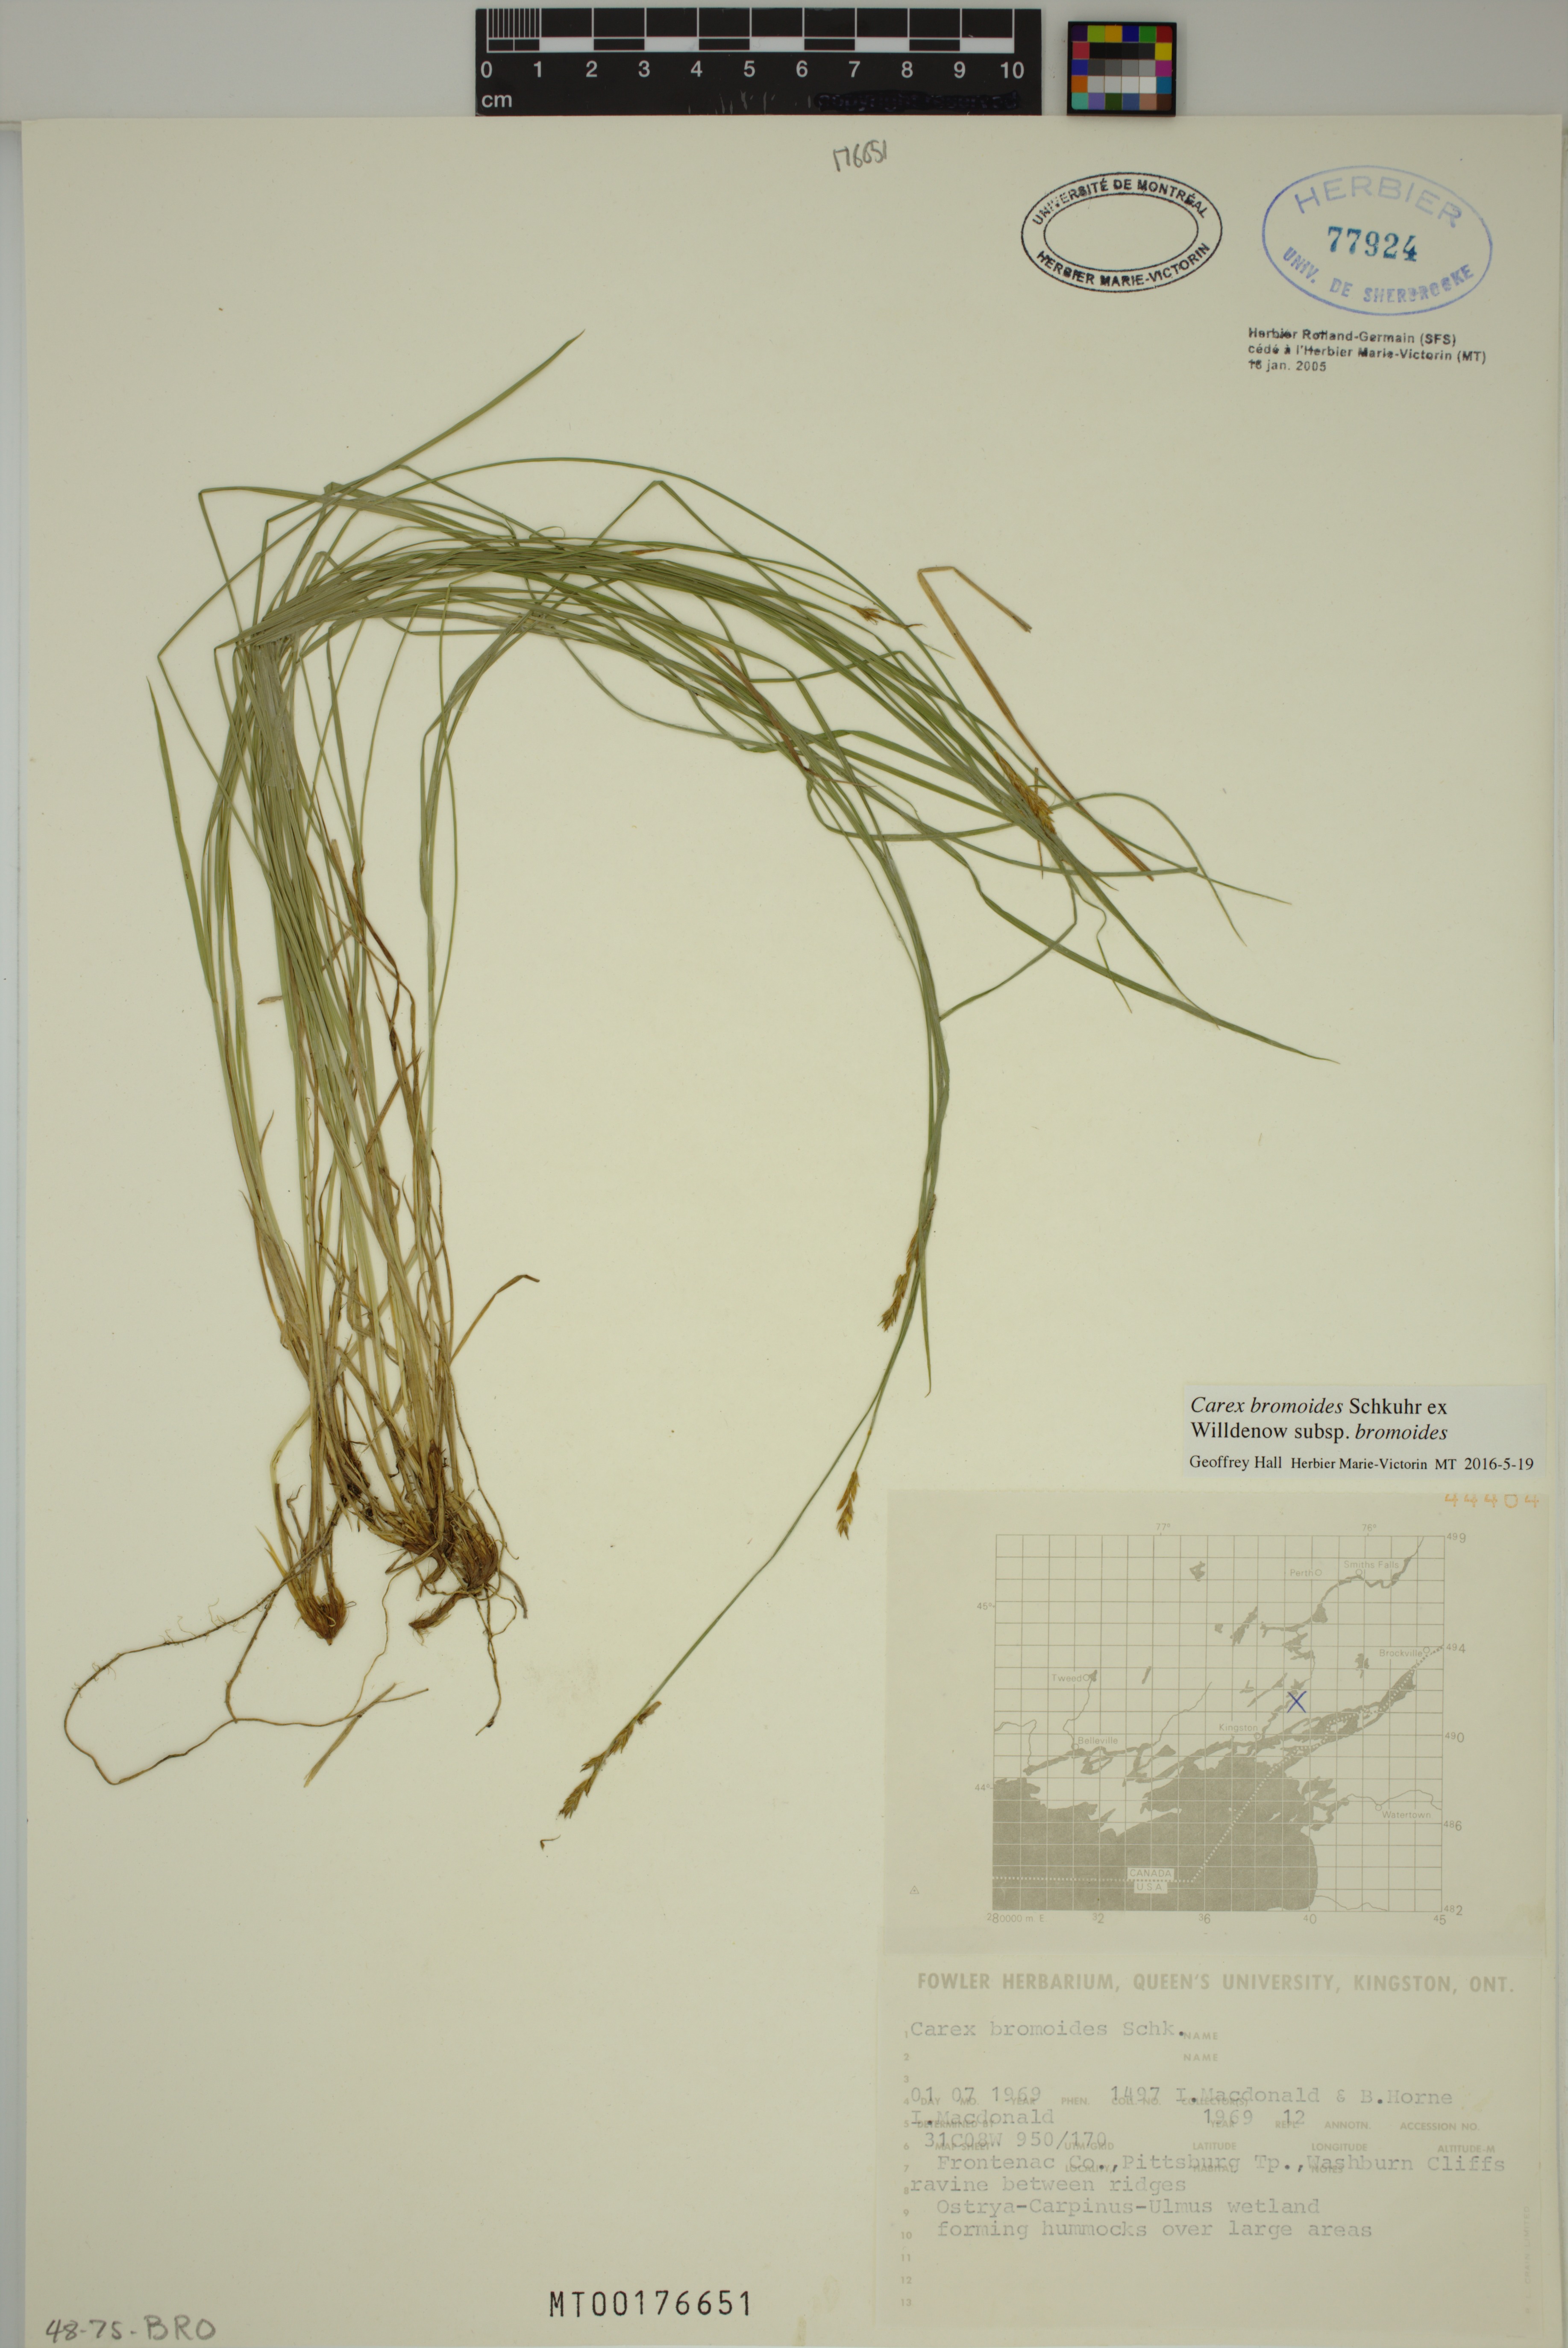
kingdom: Plantae
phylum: Tracheophyta
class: Liliopsida
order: Poales
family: Cyperaceae
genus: Carex
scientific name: Carex bromoides
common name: Brome hummock sedge
